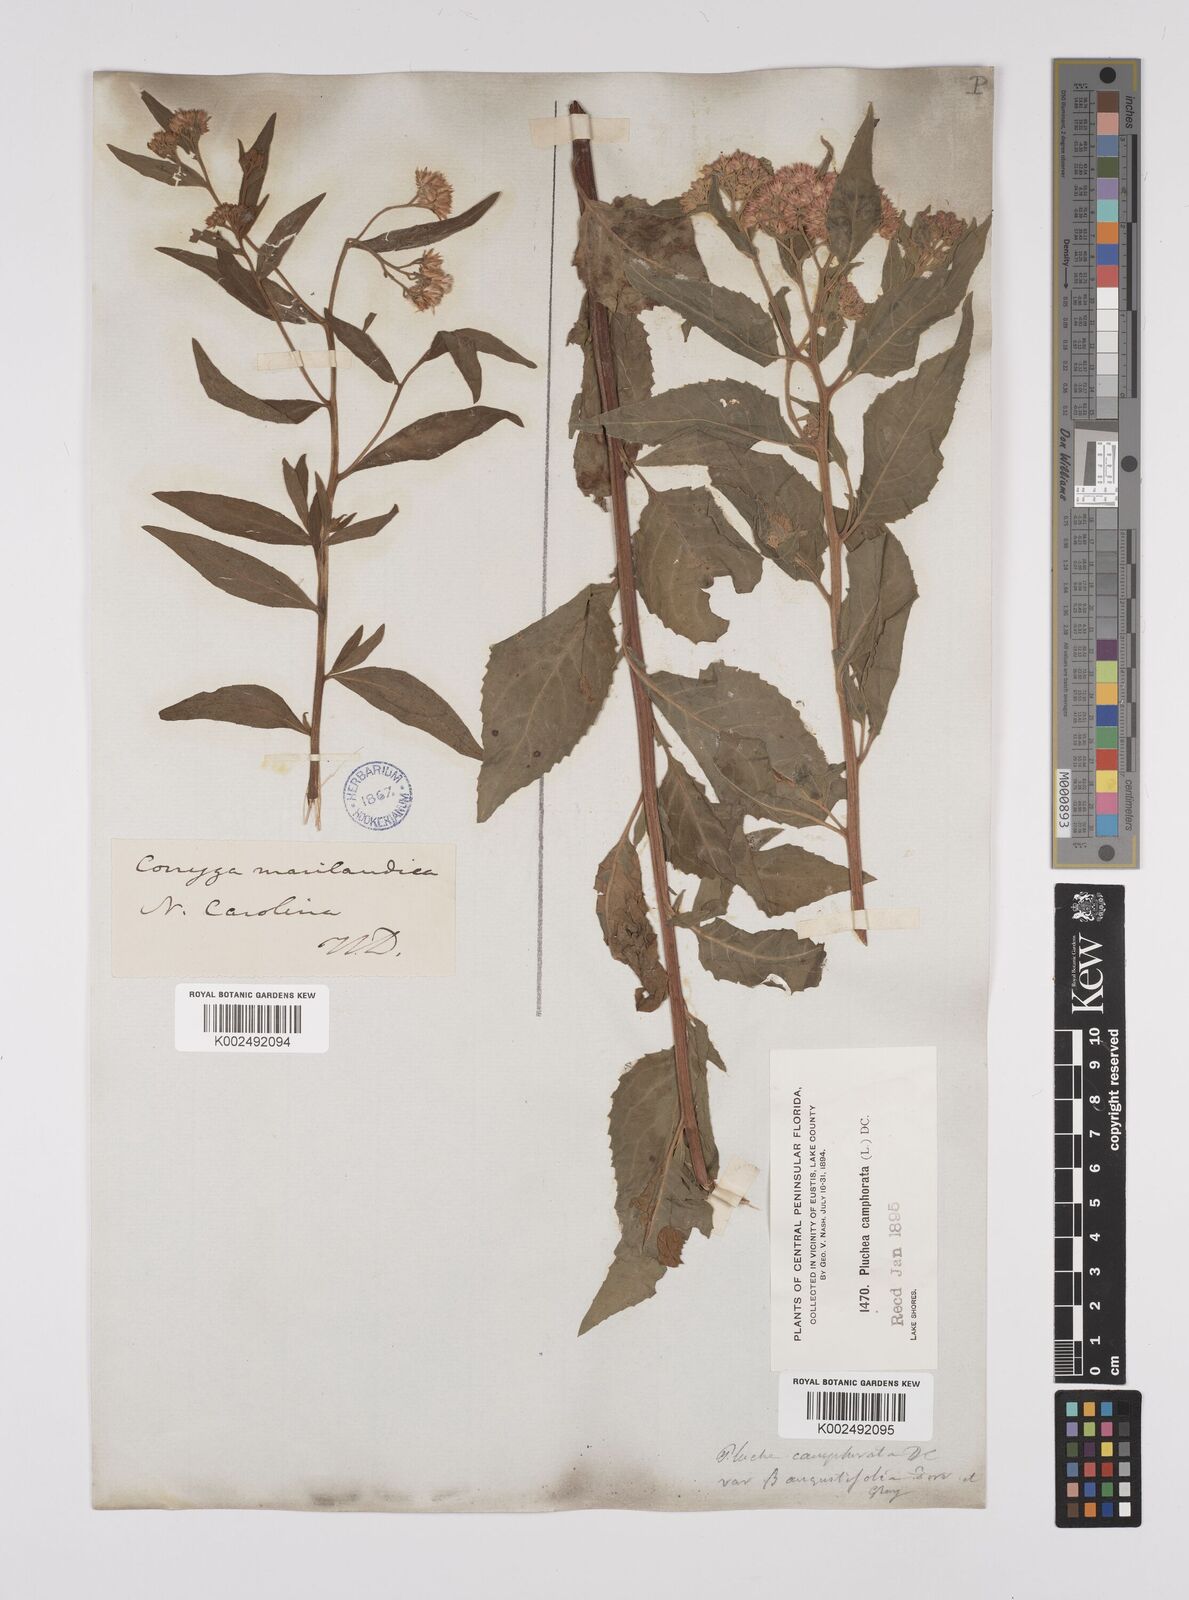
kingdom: Plantae
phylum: Tracheophyta
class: Magnoliopsida
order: Asterales
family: Asteraceae
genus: Pluchea
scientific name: Pluchea camphorata
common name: Camphor pluchea
